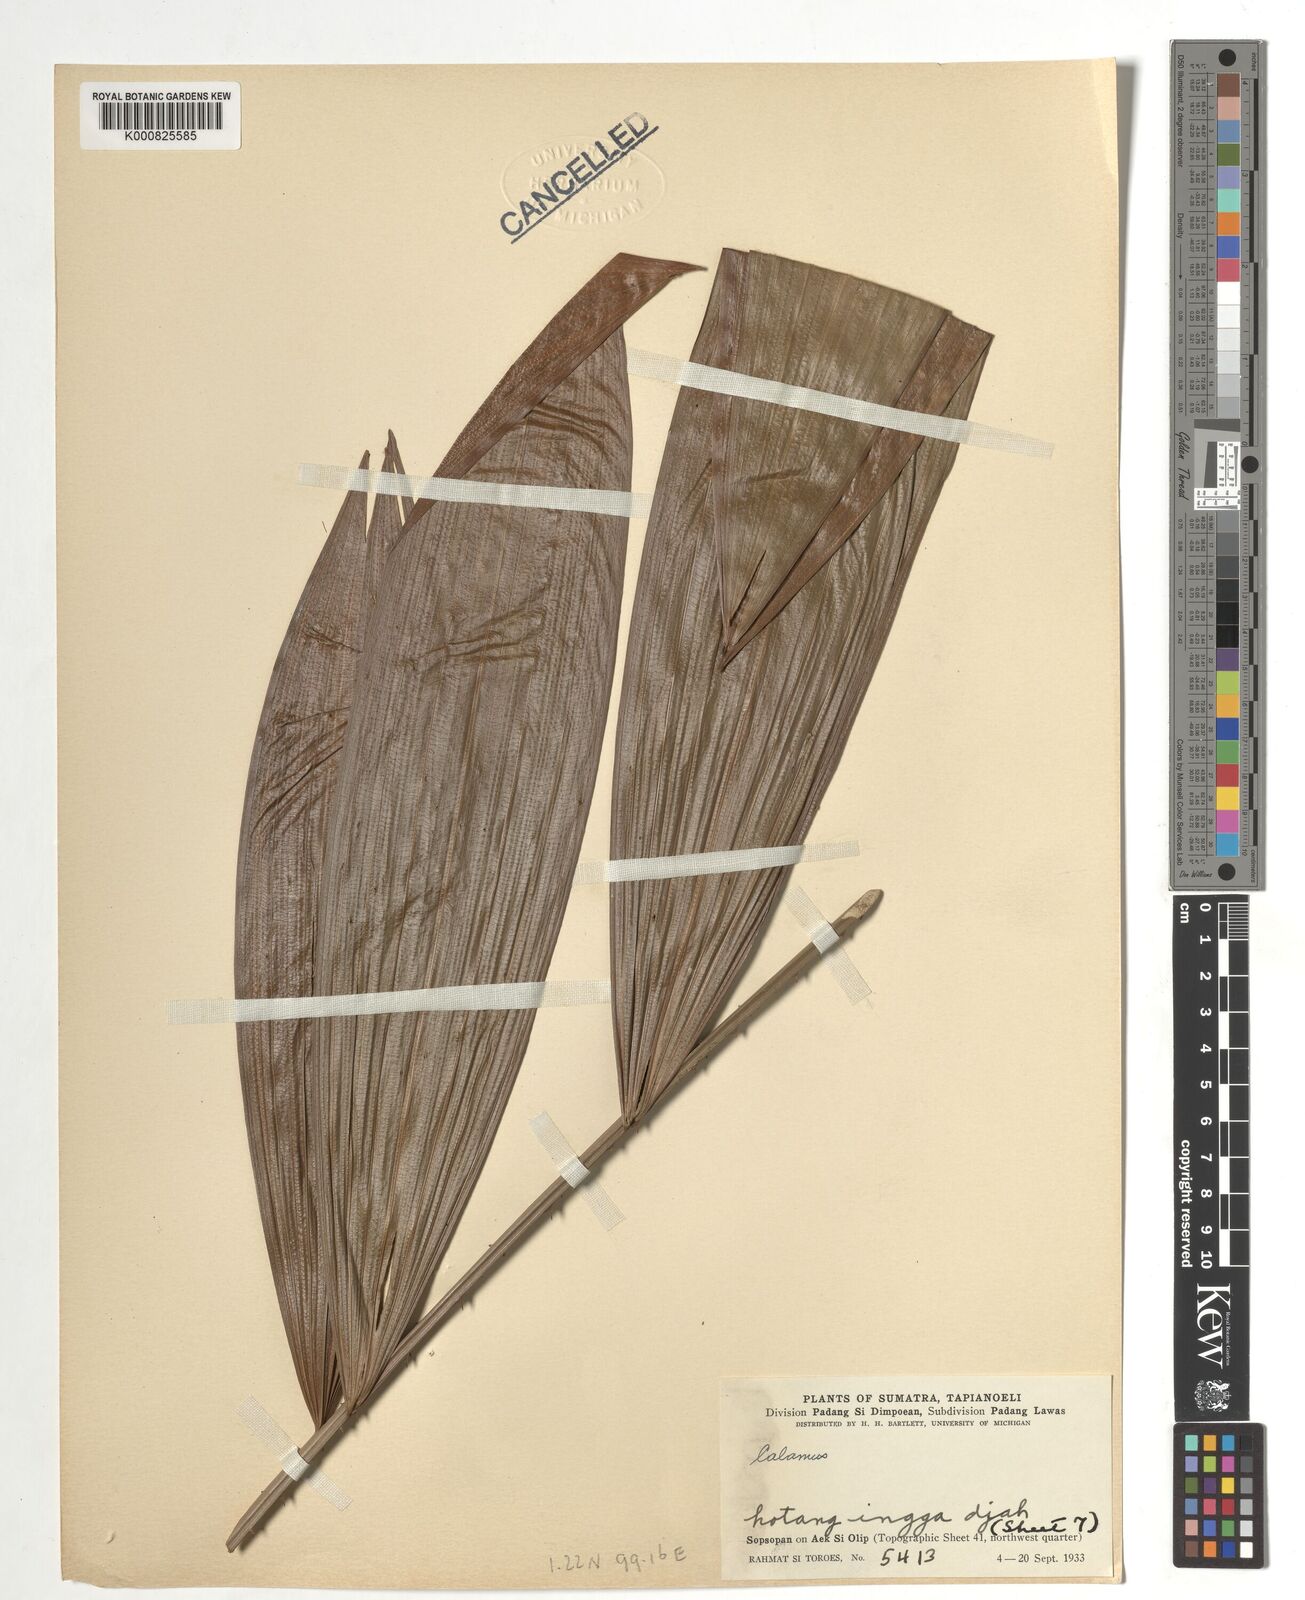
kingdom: Plantae
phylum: Tracheophyta
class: Liliopsida
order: Arecales
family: Arecaceae
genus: Calamus
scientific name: Calamus
